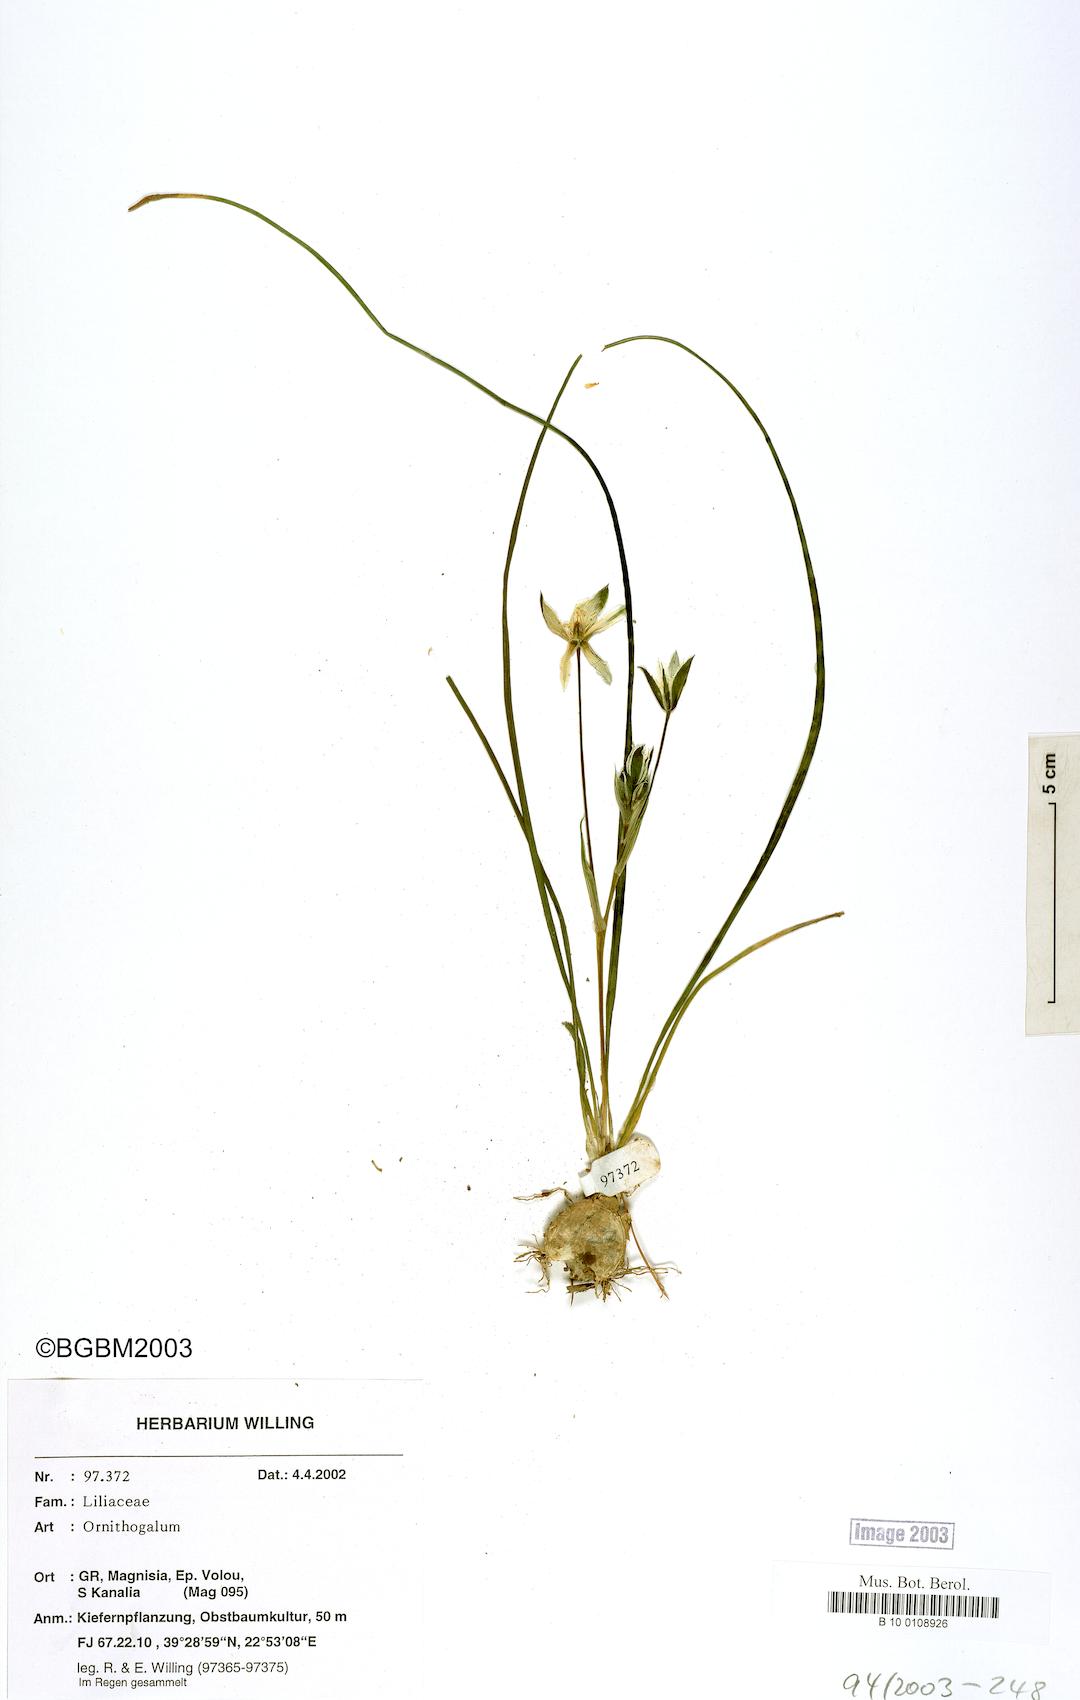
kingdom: Plantae
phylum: Tracheophyta
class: Liliopsida
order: Asparagales
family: Asparagaceae
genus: Ornithogalum
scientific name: Ornithogalum
